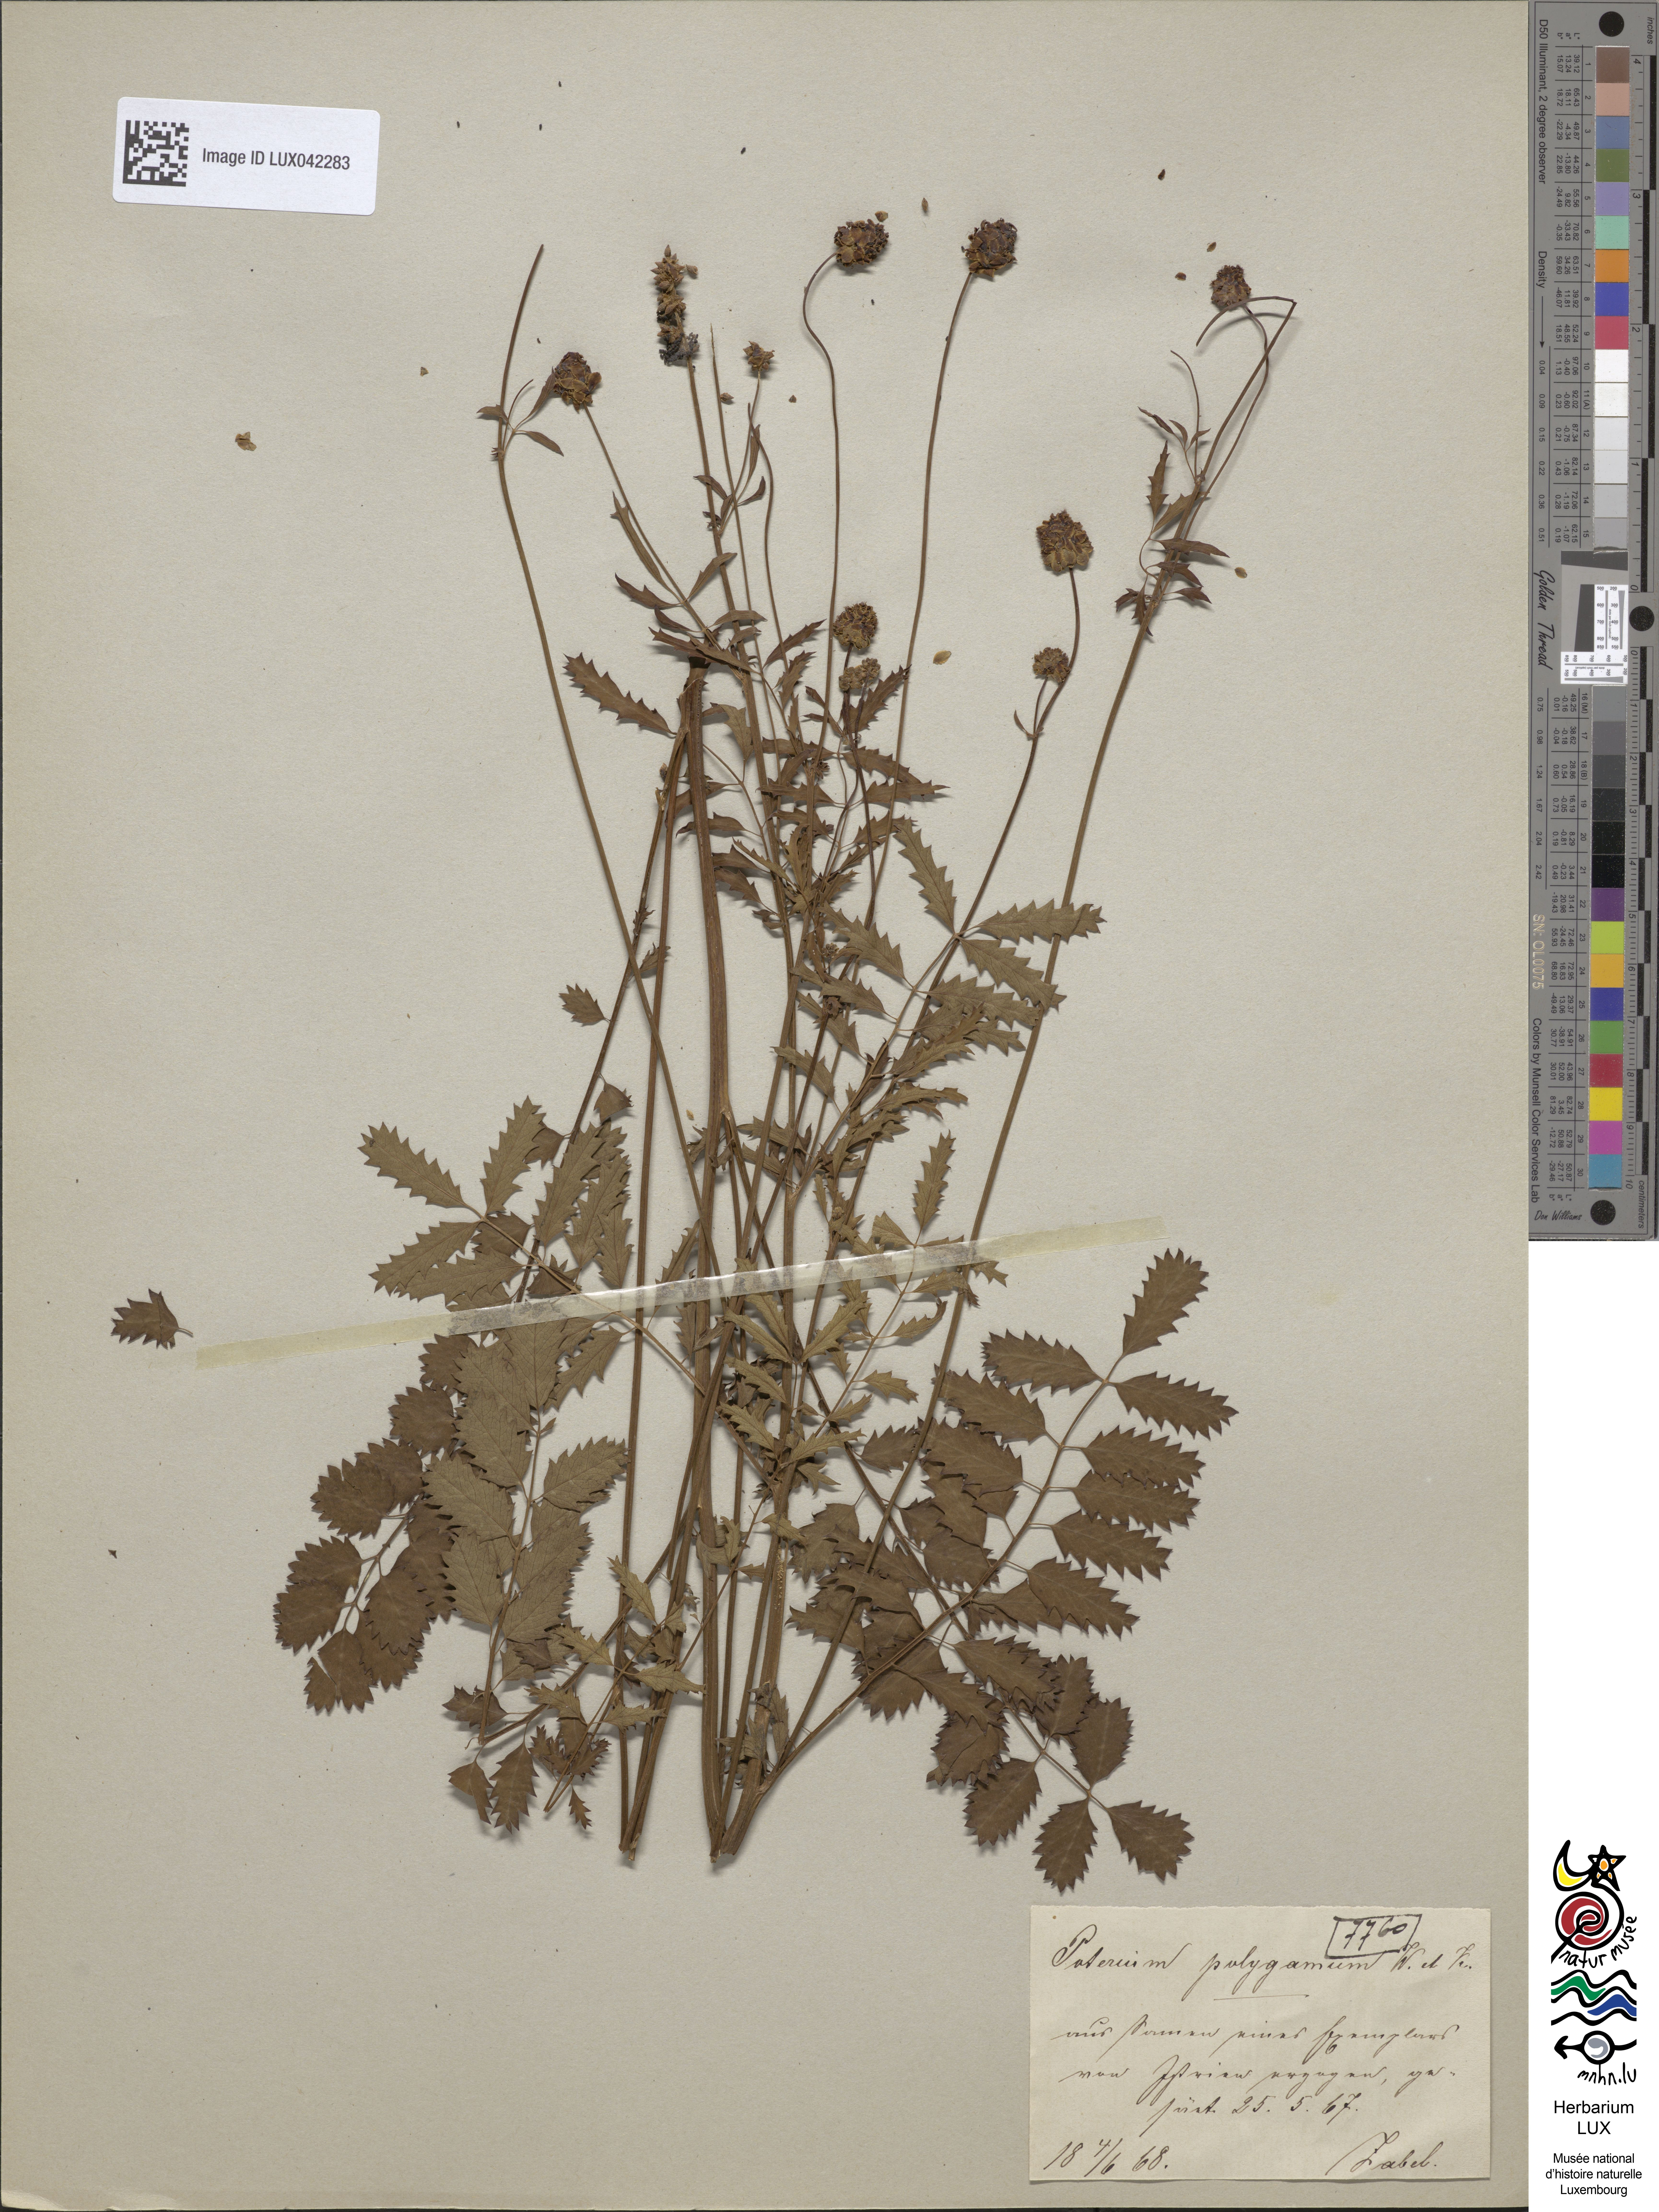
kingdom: Plantae
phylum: Tracheophyta
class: Magnoliopsida
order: Rosales
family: Rosaceae
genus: Poterium
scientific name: Poterium sanguisorba
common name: Salad burnet
